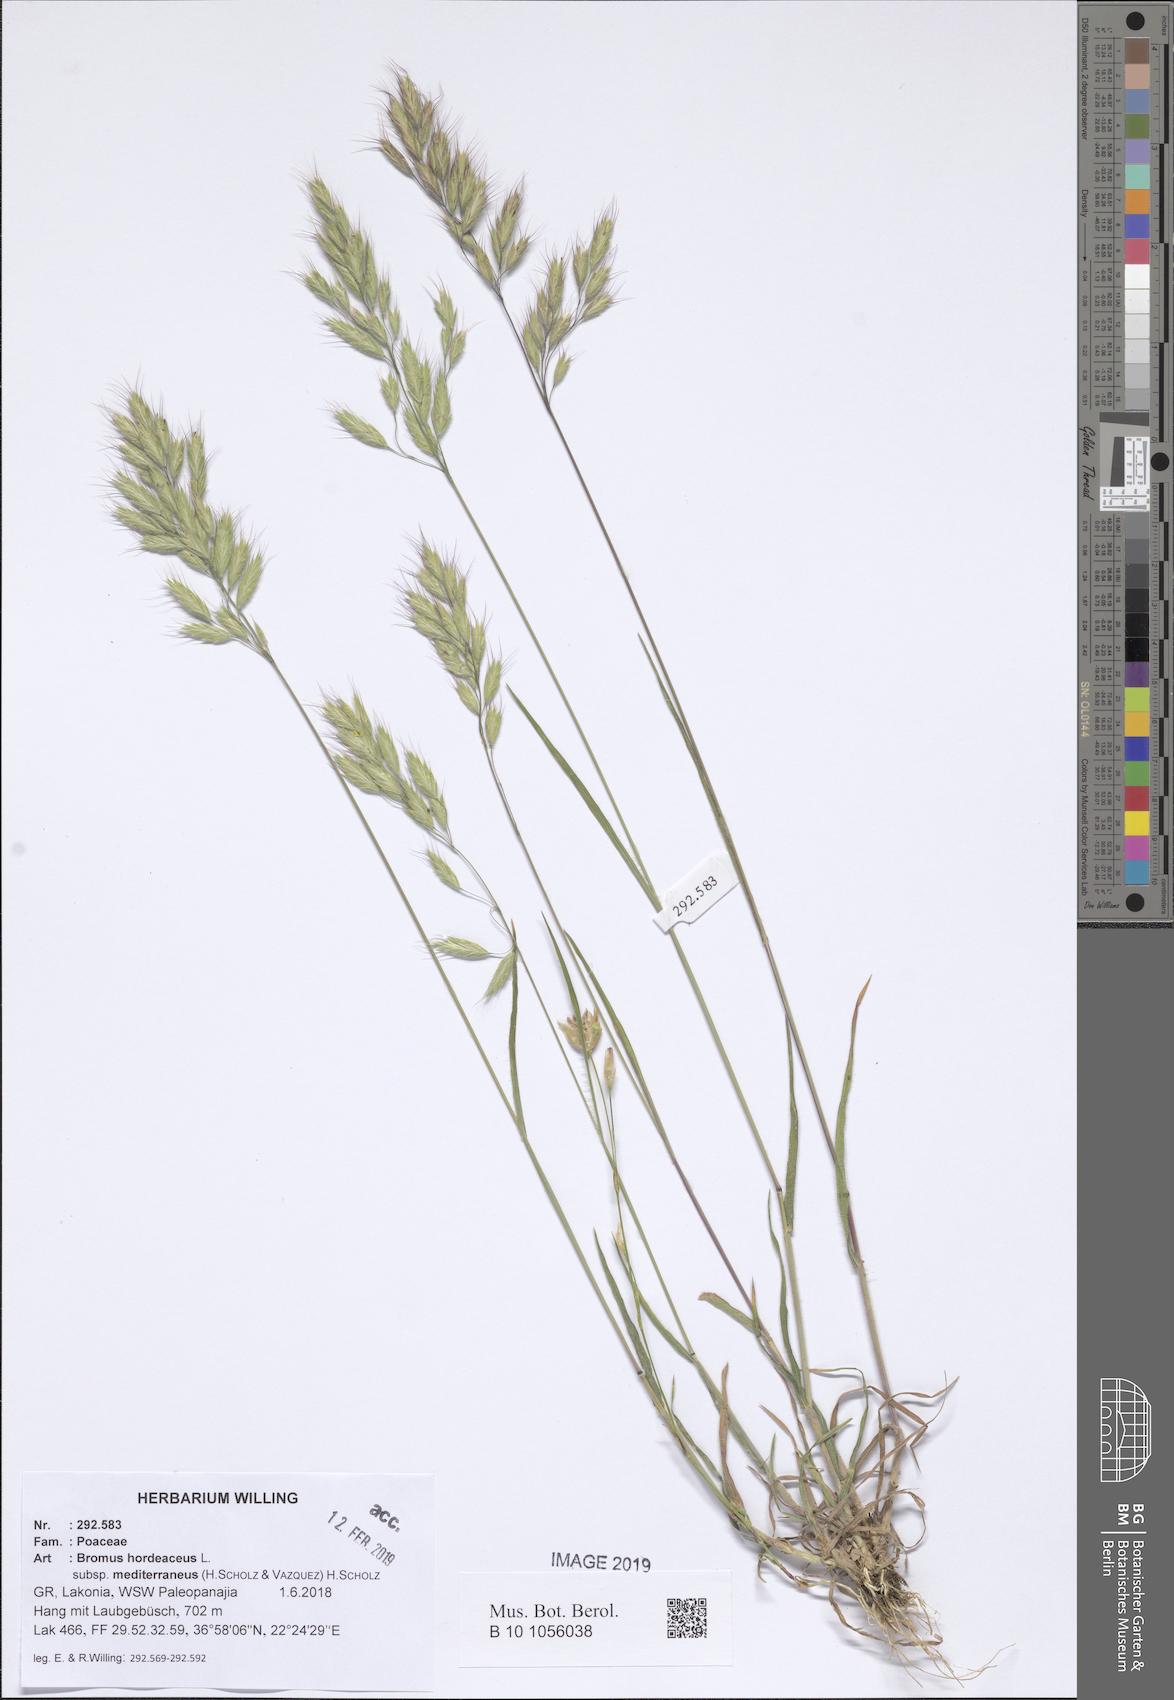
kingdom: Plantae
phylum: Tracheophyta
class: Liliopsida
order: Poales
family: Poaceae
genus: Bromus
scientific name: Bromus hordeaceus
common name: Soft brome
